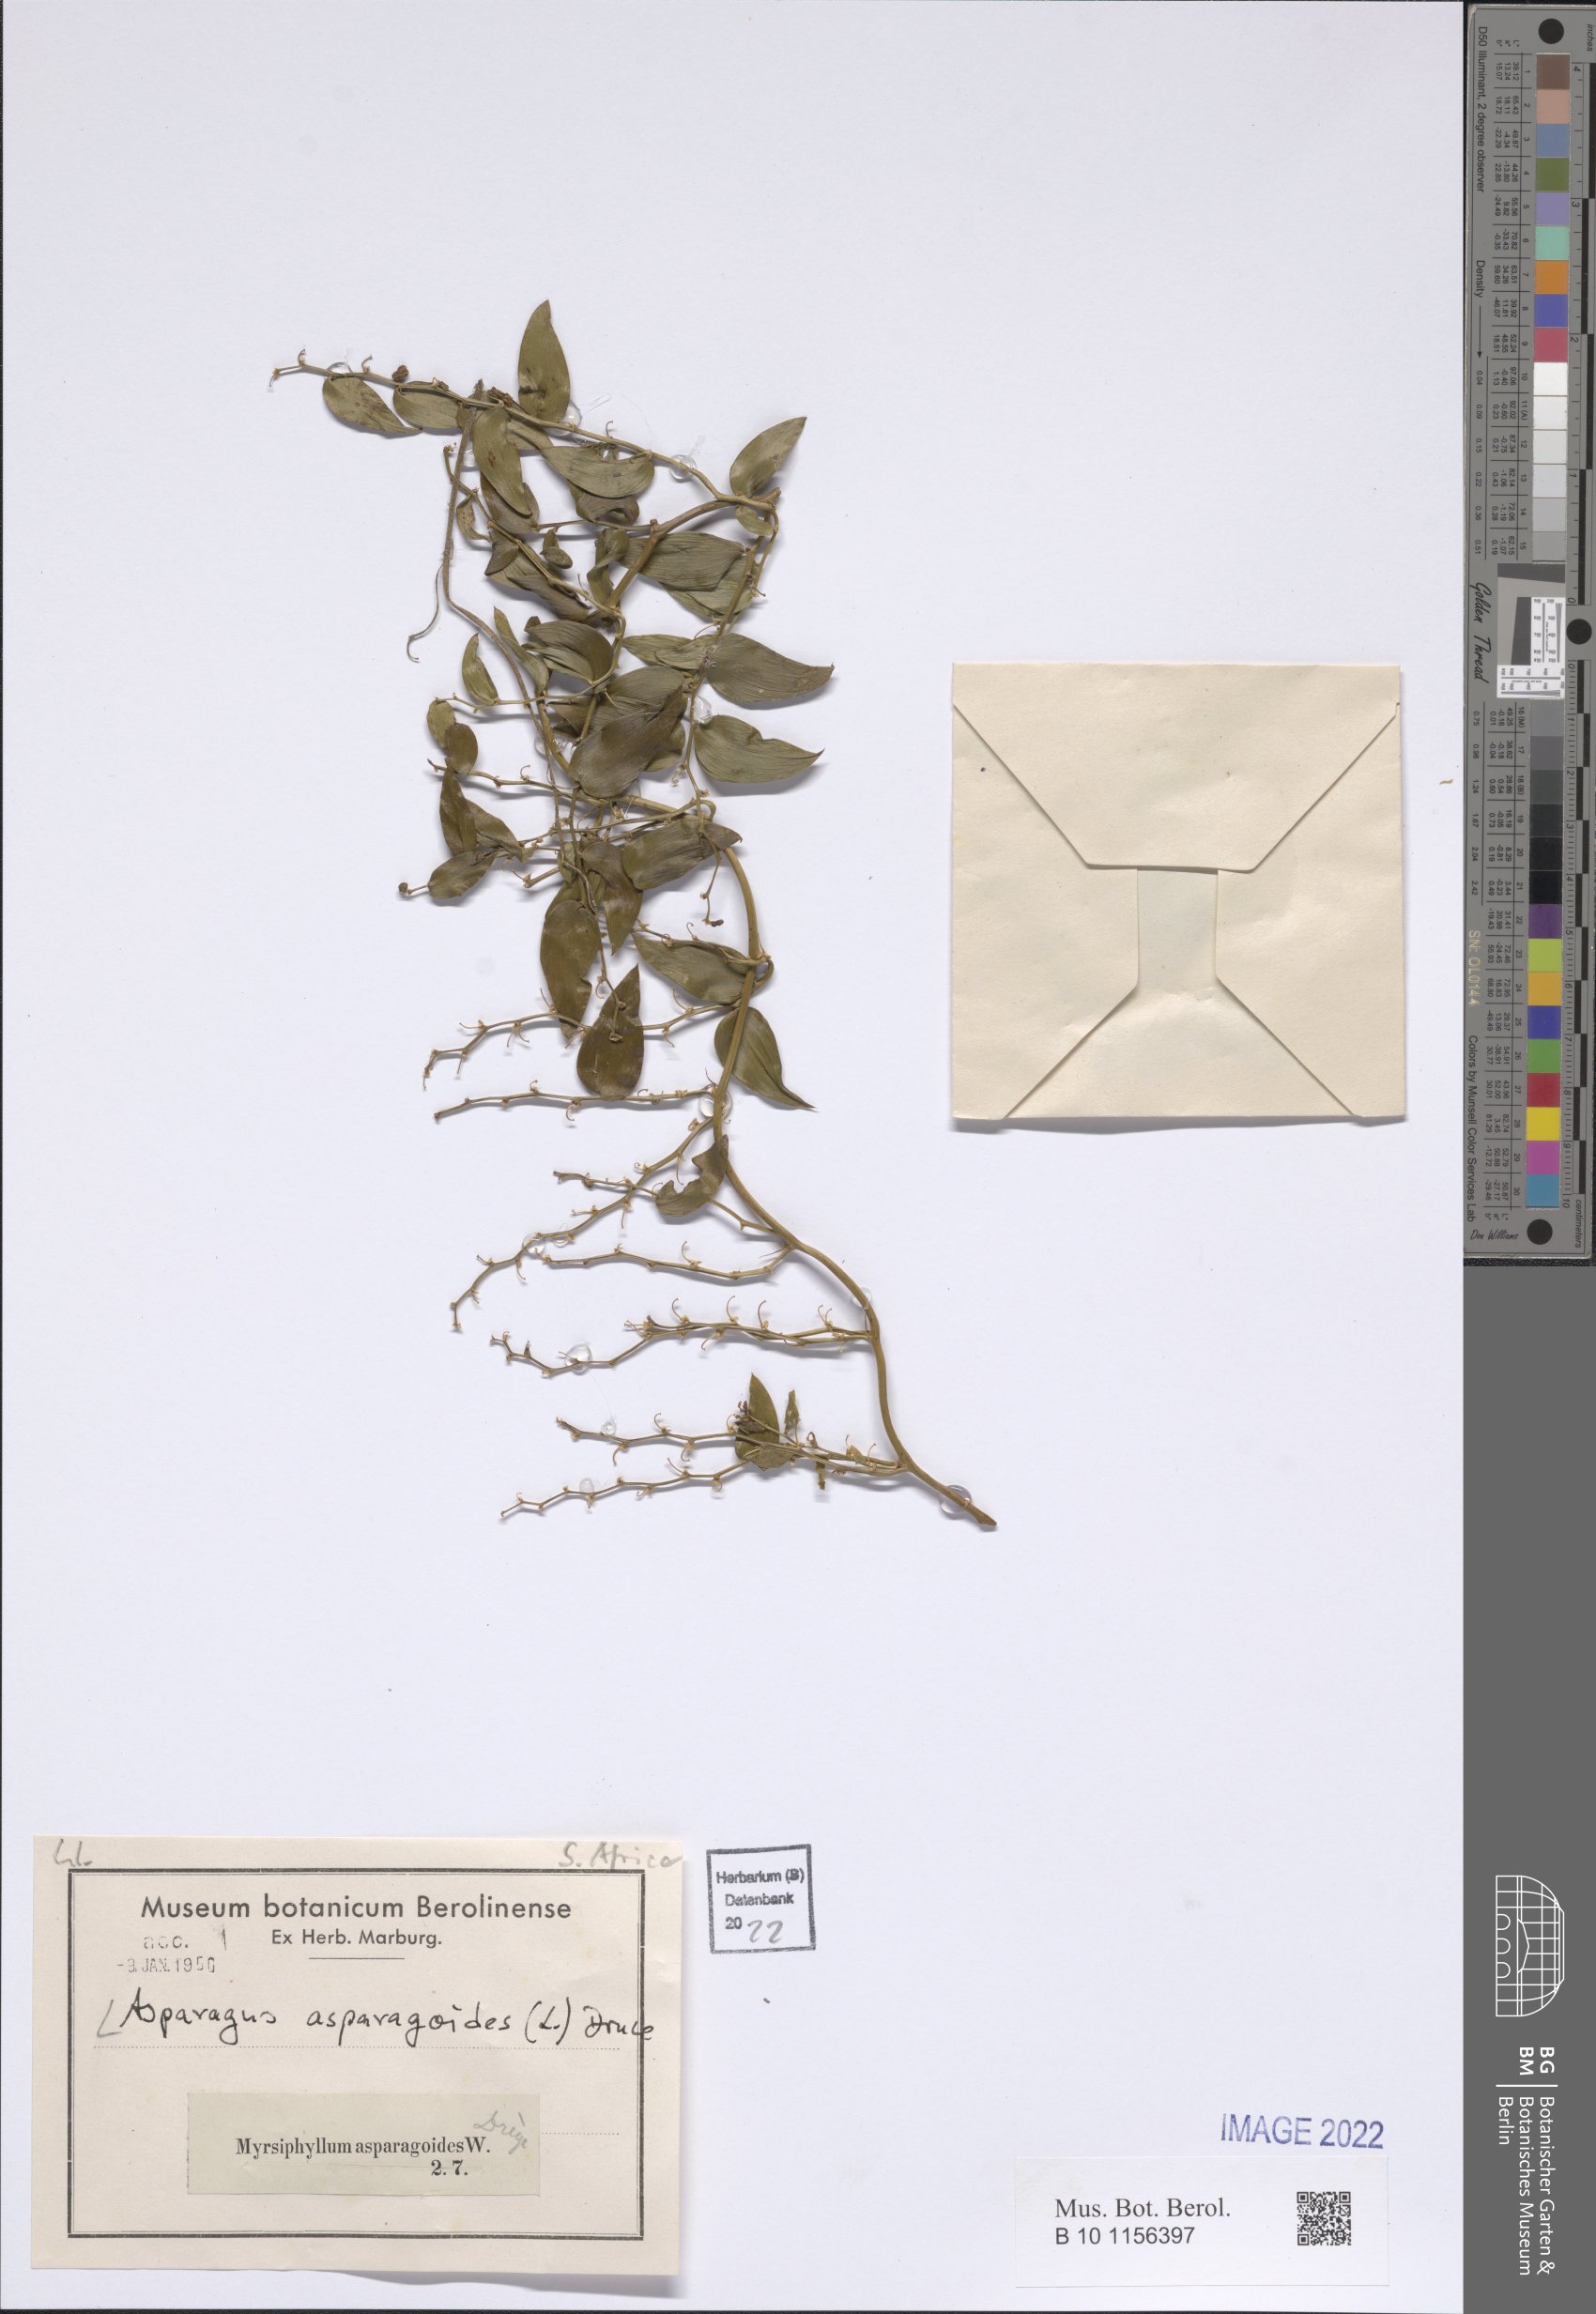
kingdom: Plantae
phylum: Tracheophyta
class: Liliopsida
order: Asparagales
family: Asparagaceae
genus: Asparagus
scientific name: Asparagus asparagoides
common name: African asparagus fern
